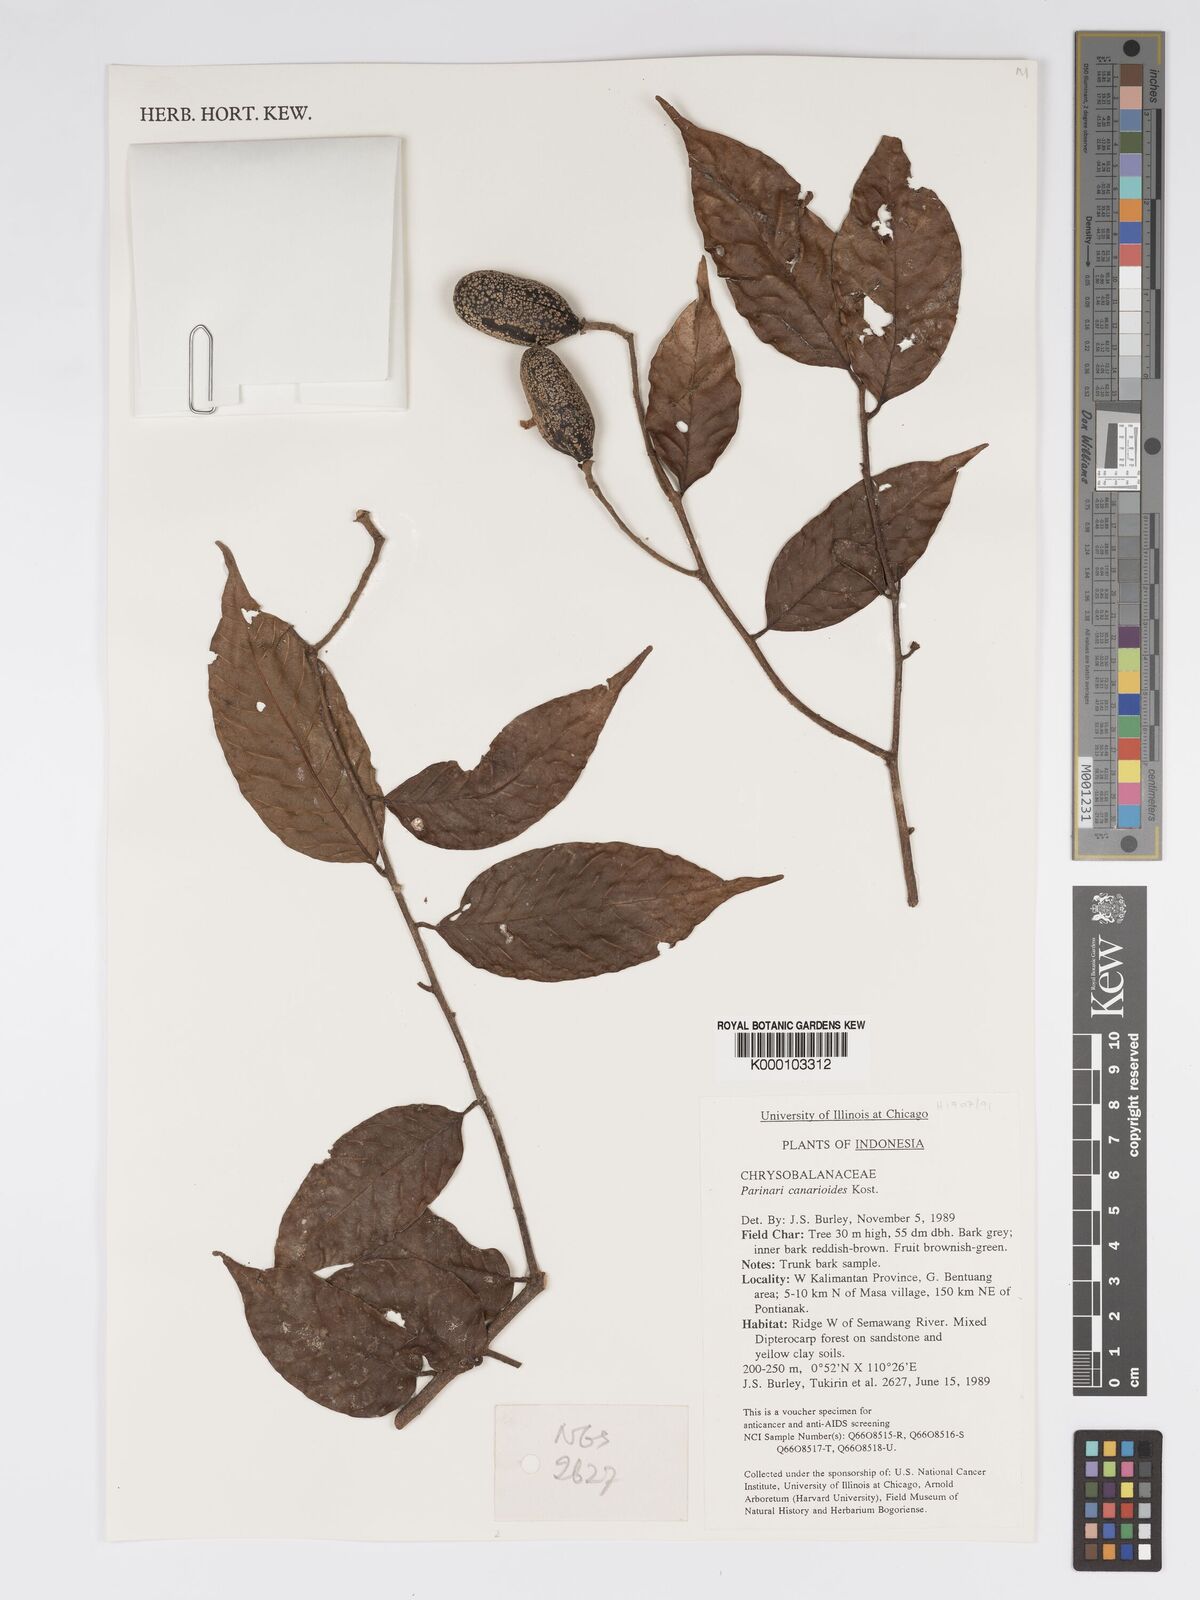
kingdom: Plantae
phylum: Tracheophyta
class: Magnoliopsida
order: Malpighiales
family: Chrysobalanaceae
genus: Parinari
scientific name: Parinari canarioides
